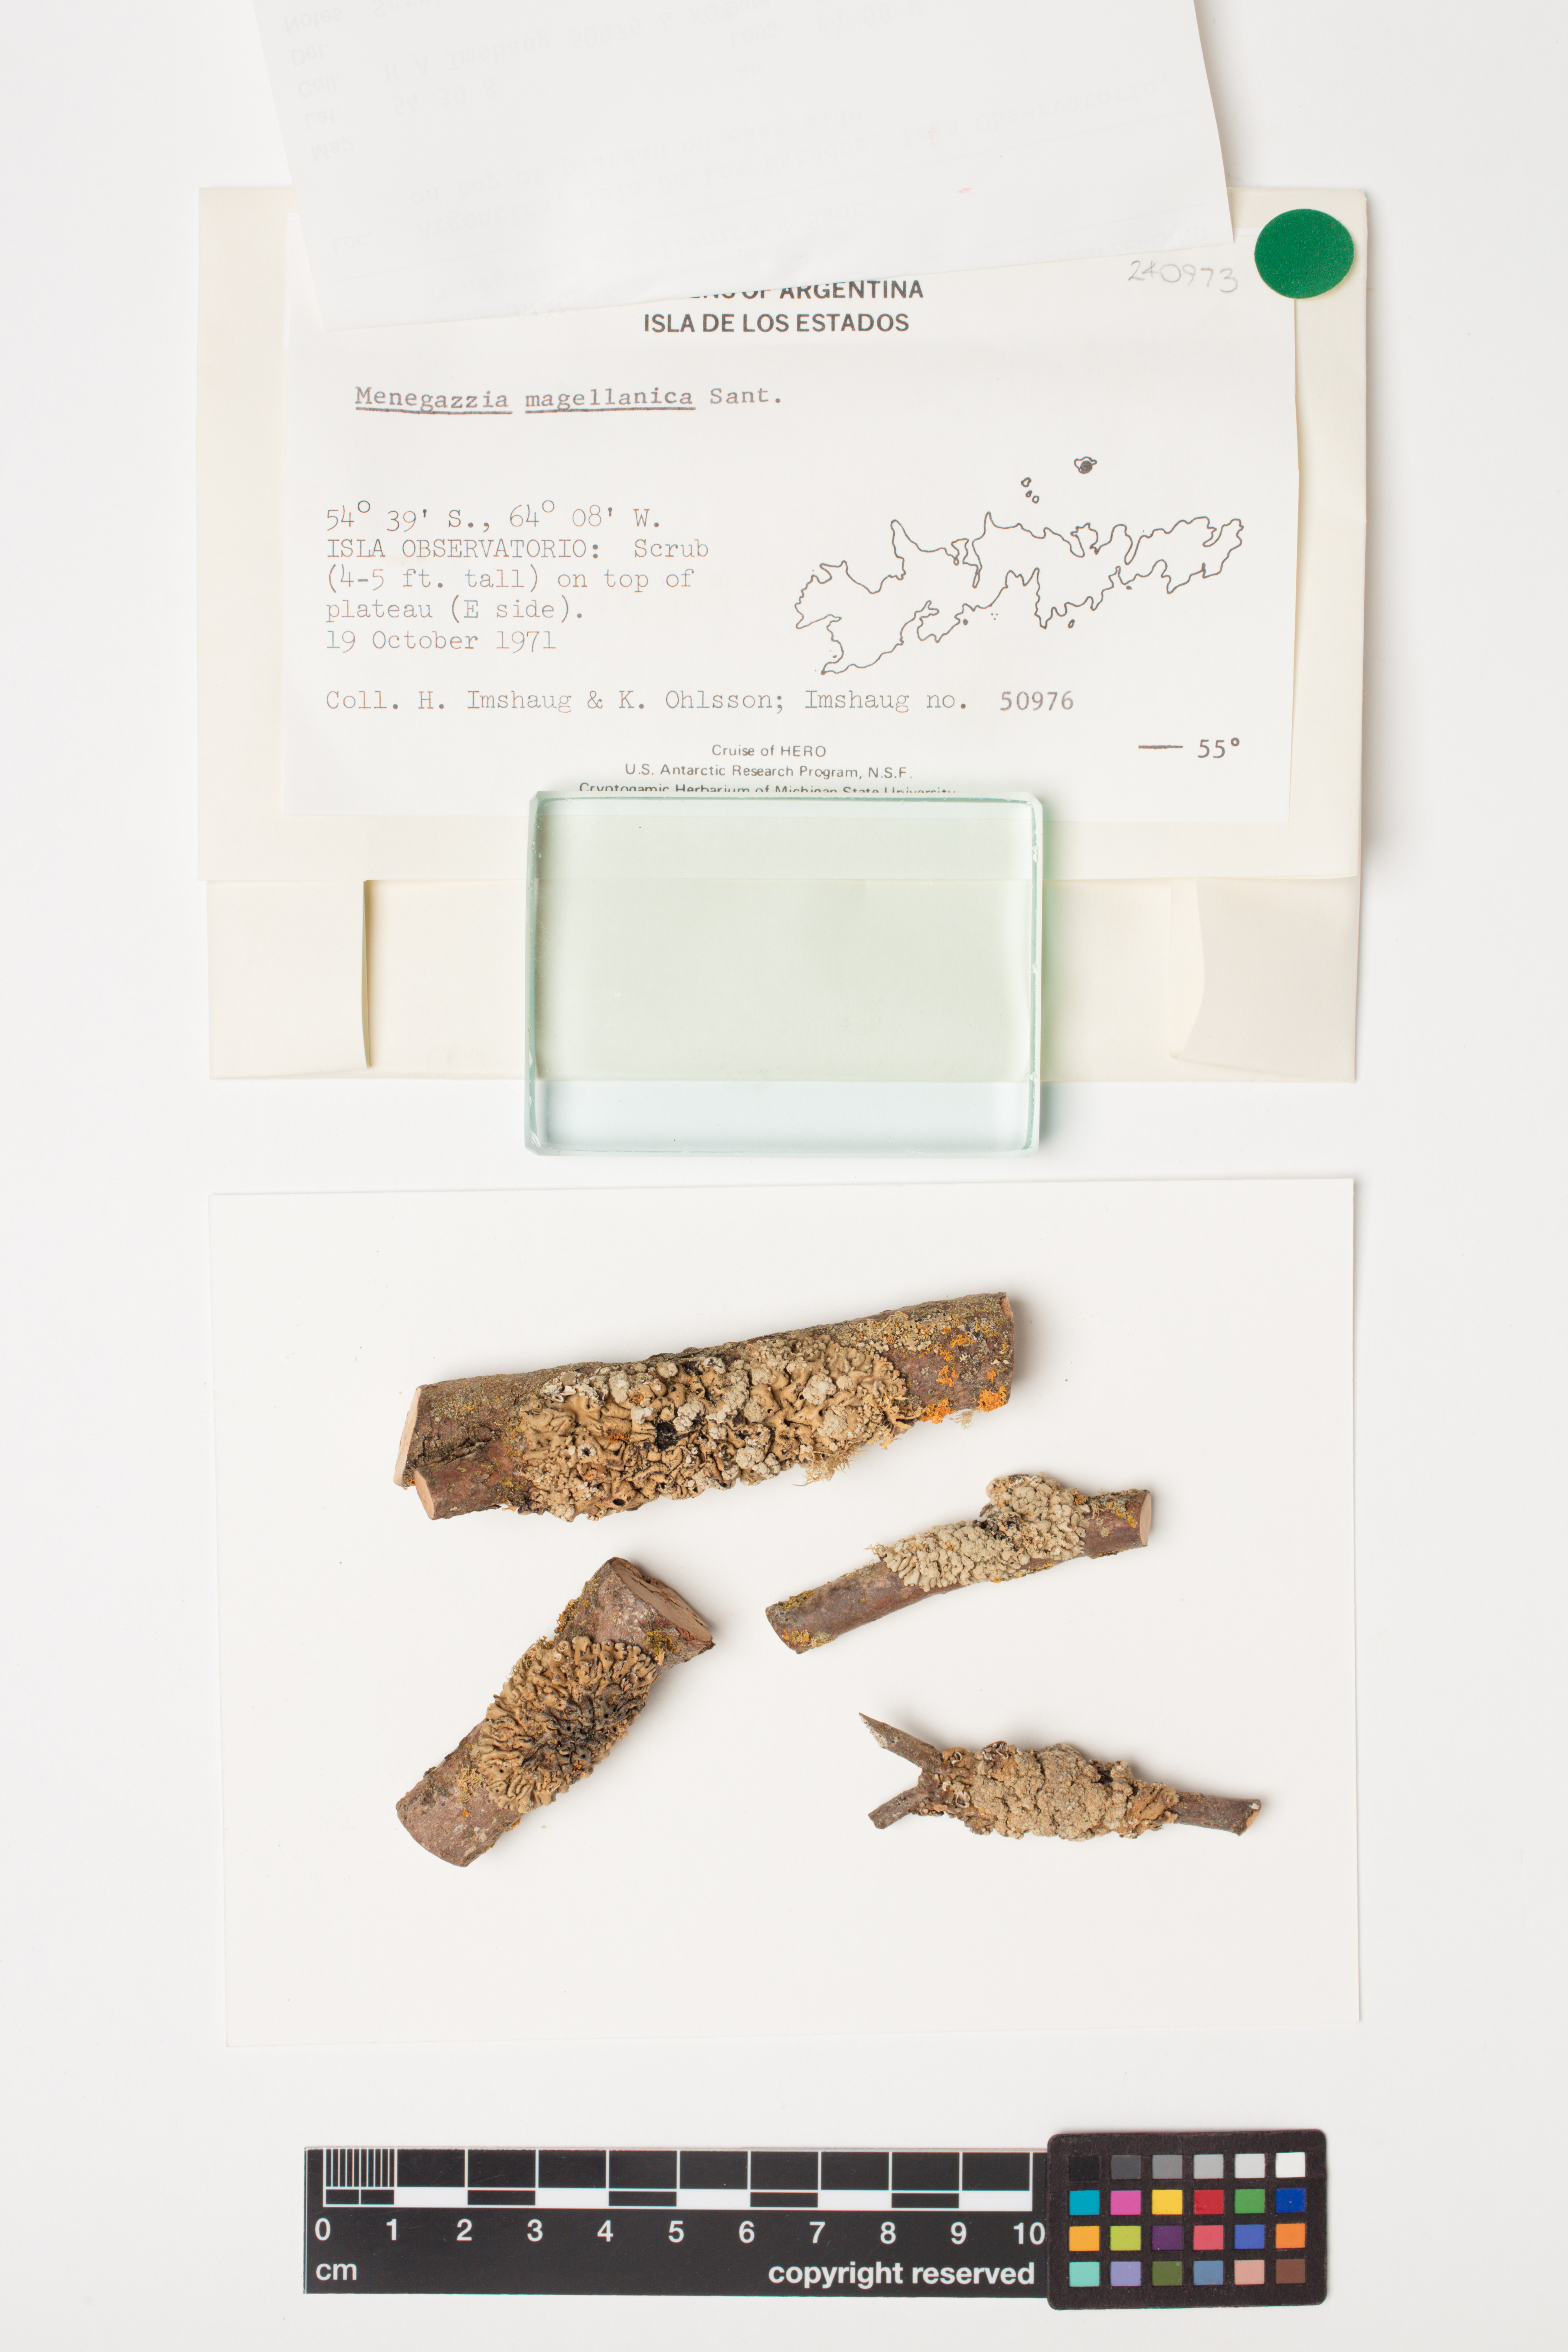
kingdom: Fungi
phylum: Ascomycota
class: Lecanoromycetes
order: Lecanorales
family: Parmeliaceae
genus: Menegazzia
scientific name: Menegazzia subpertusa
